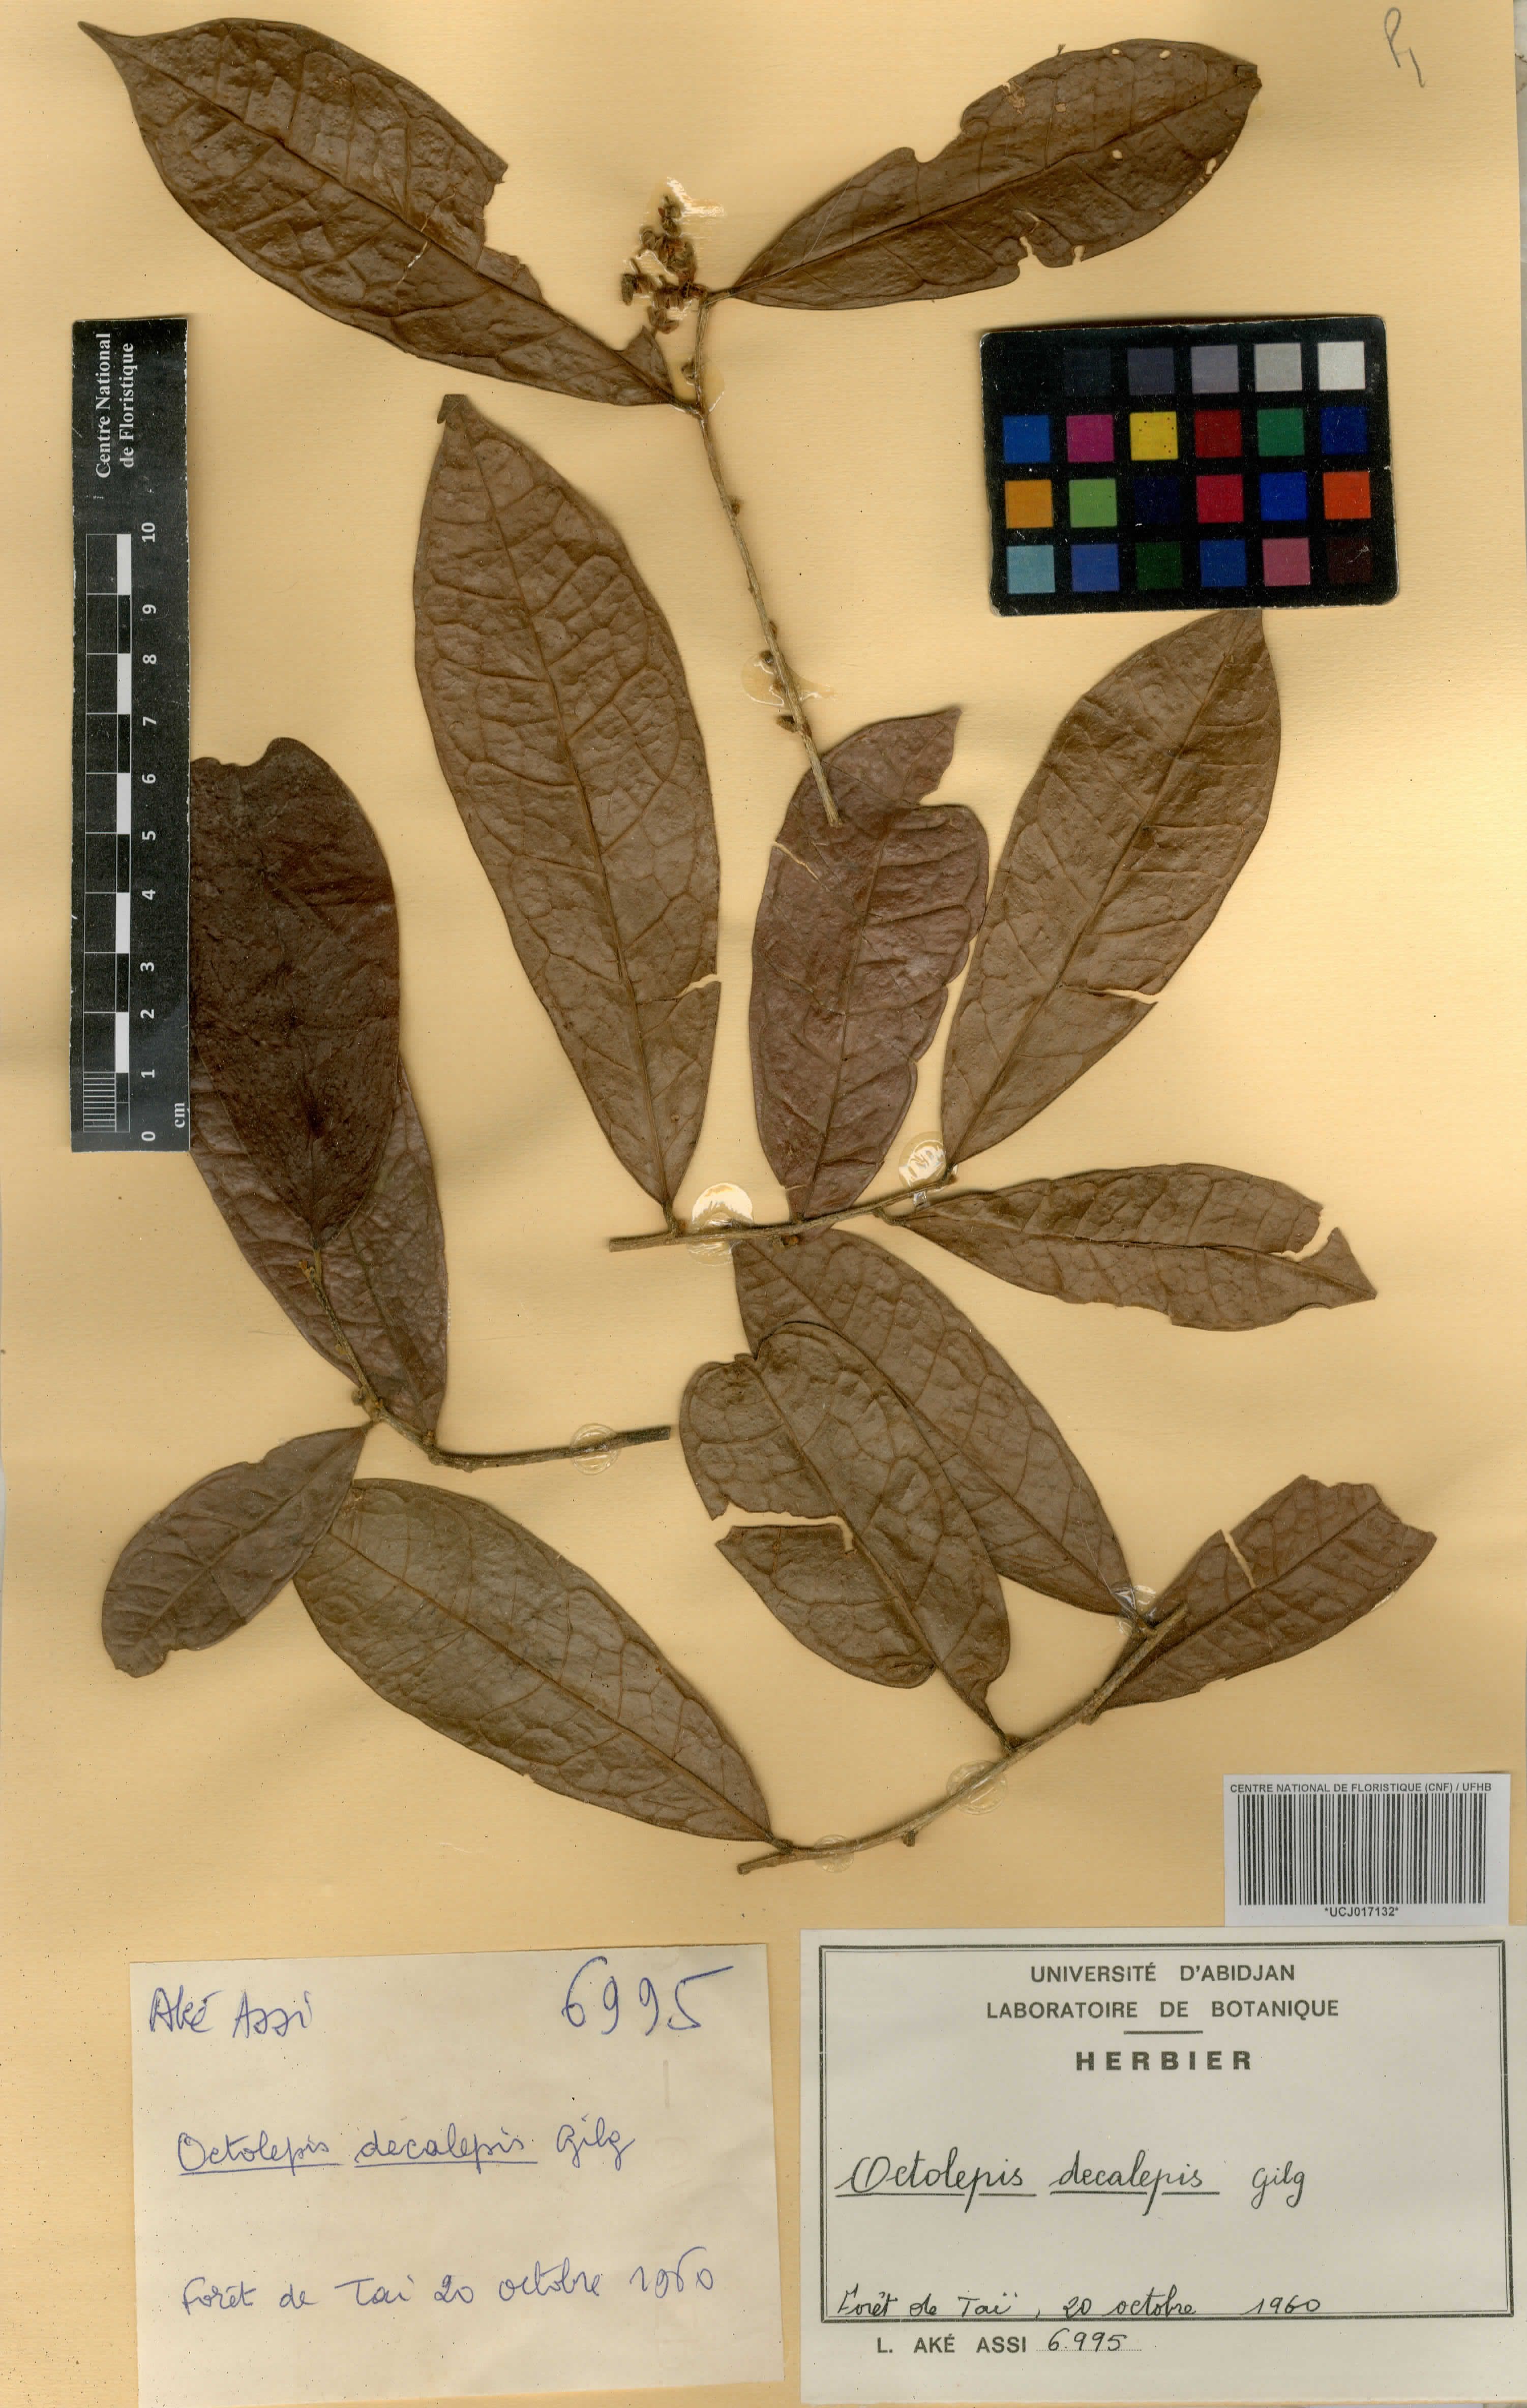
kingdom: Plantae
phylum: Tracheophyta
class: Magnoliopsida
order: Malvales
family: Thymelaeaceae
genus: Octolepis
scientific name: Octolepis decalepis
